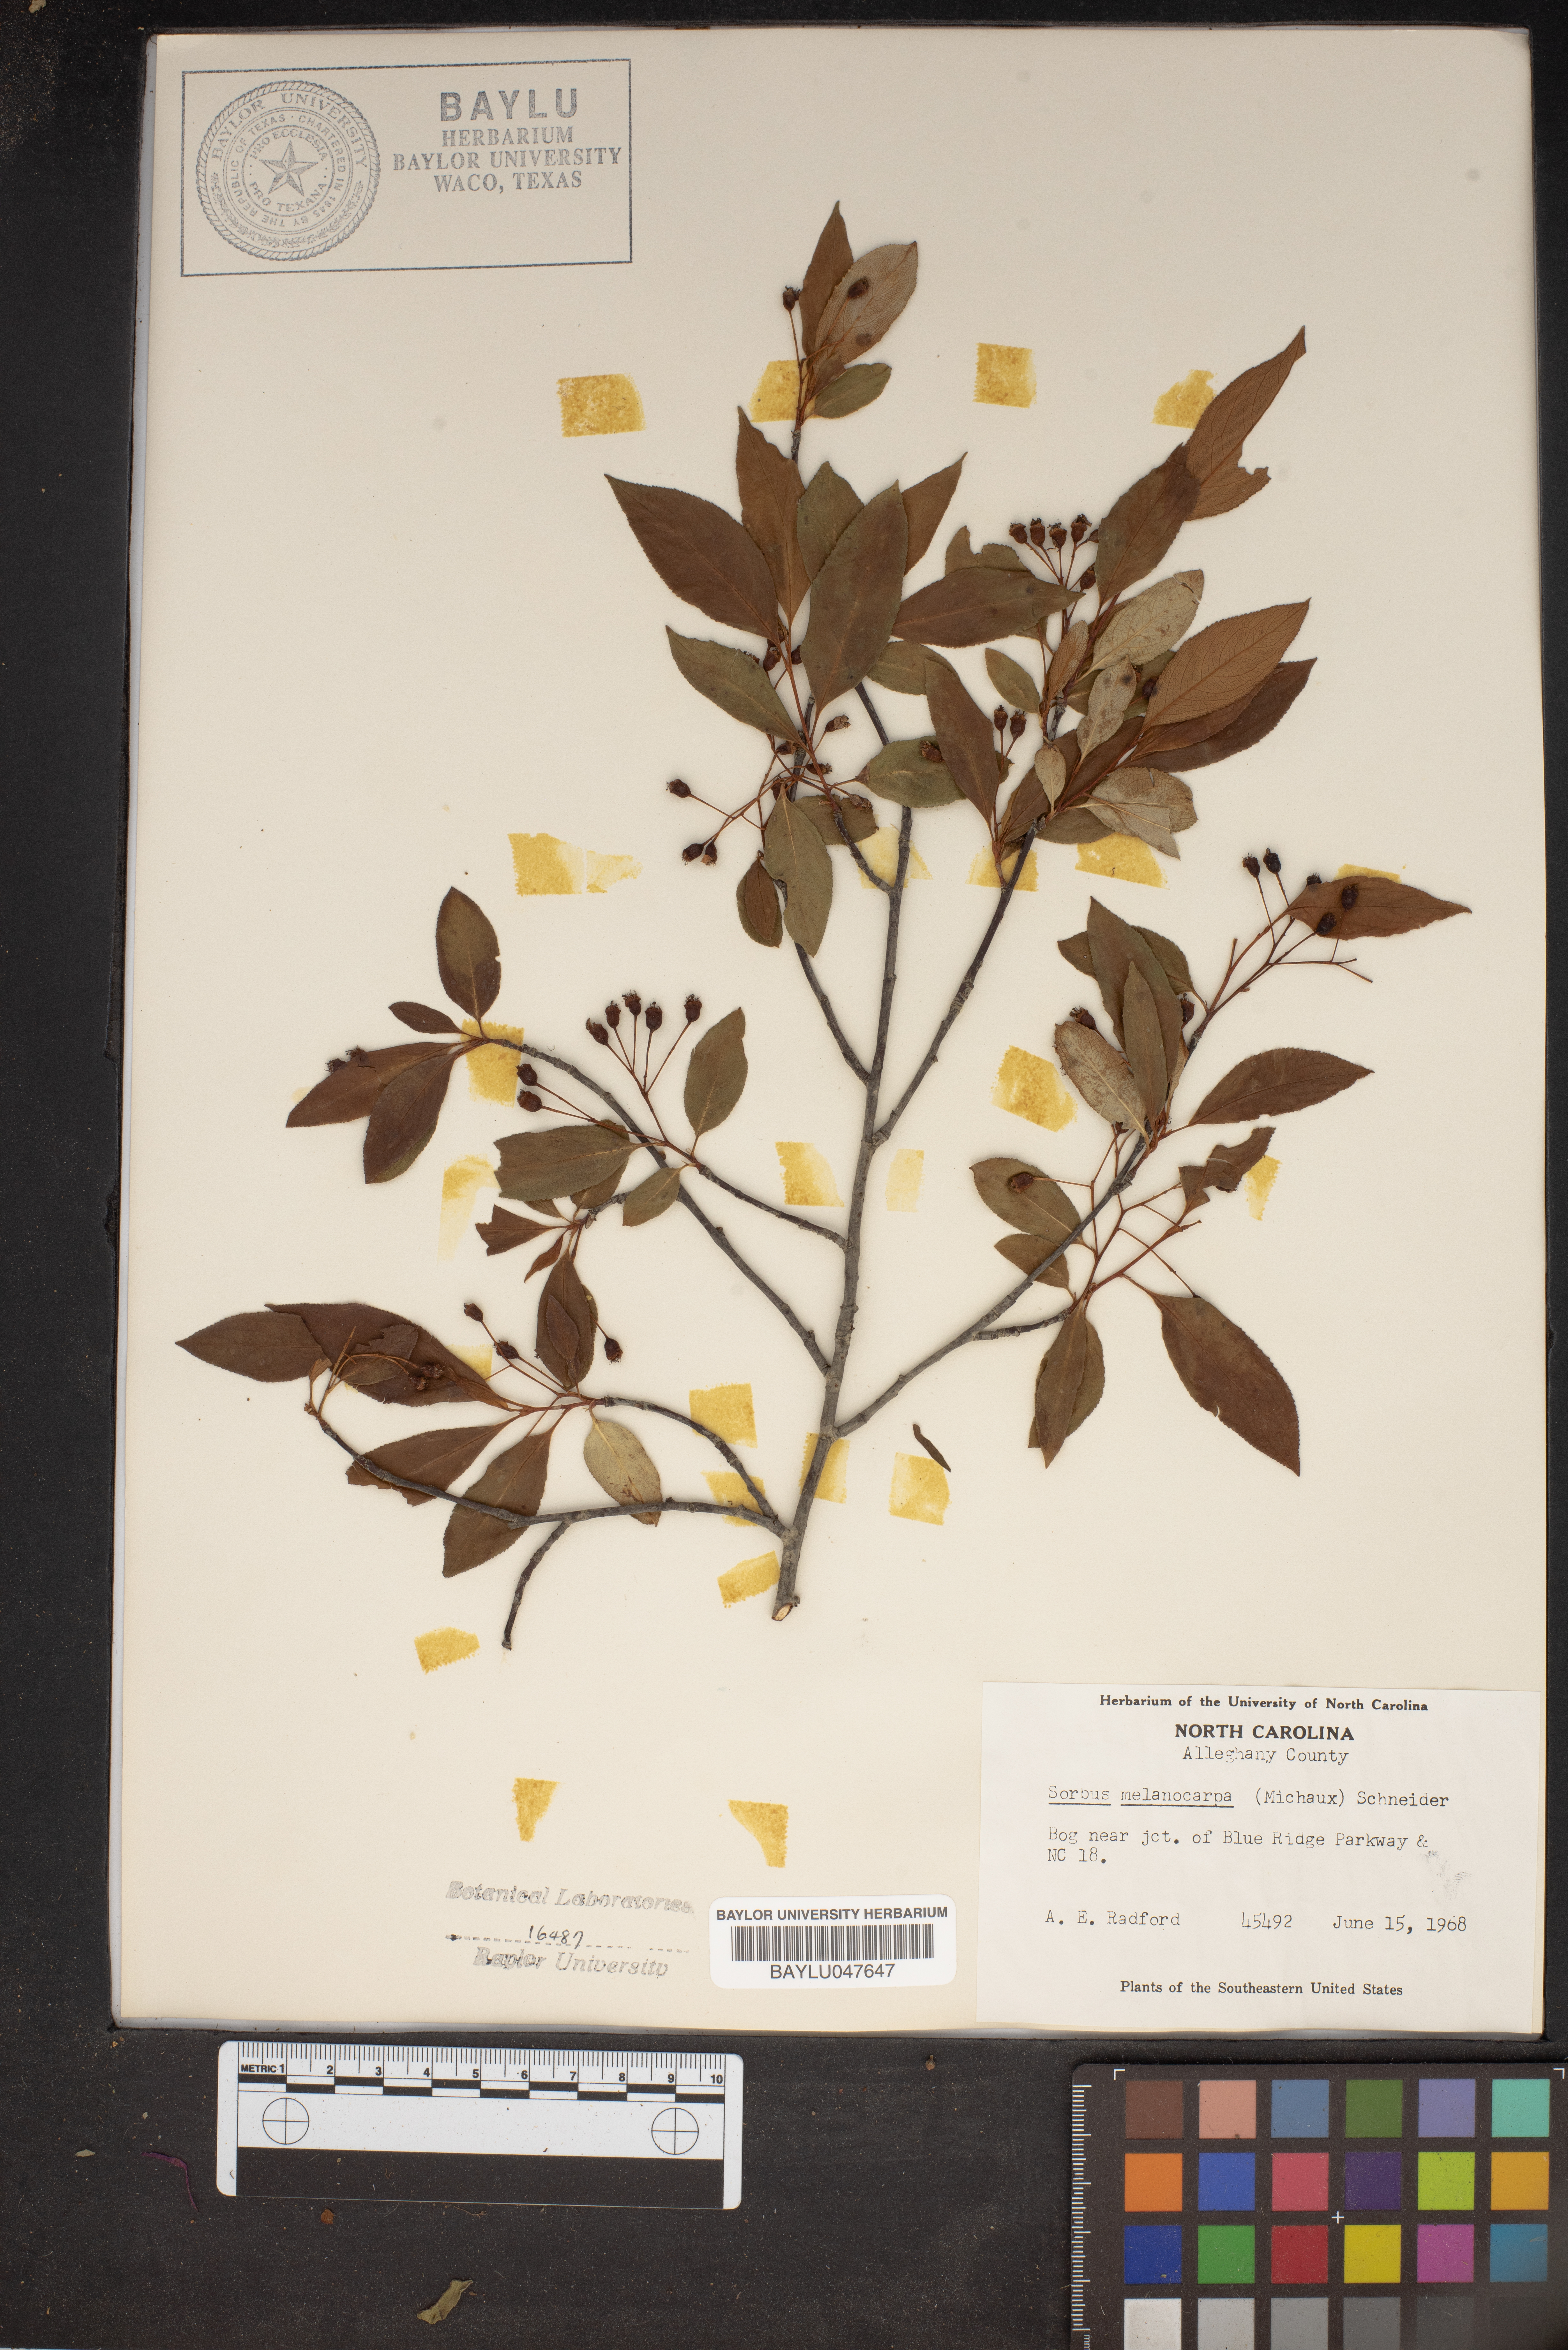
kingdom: Plantae
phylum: Tracheophyta
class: Magnoliopsida
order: Rosales
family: Rosaceae
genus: Aronia
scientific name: Aronia melanocarpa
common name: Black chokeberry
